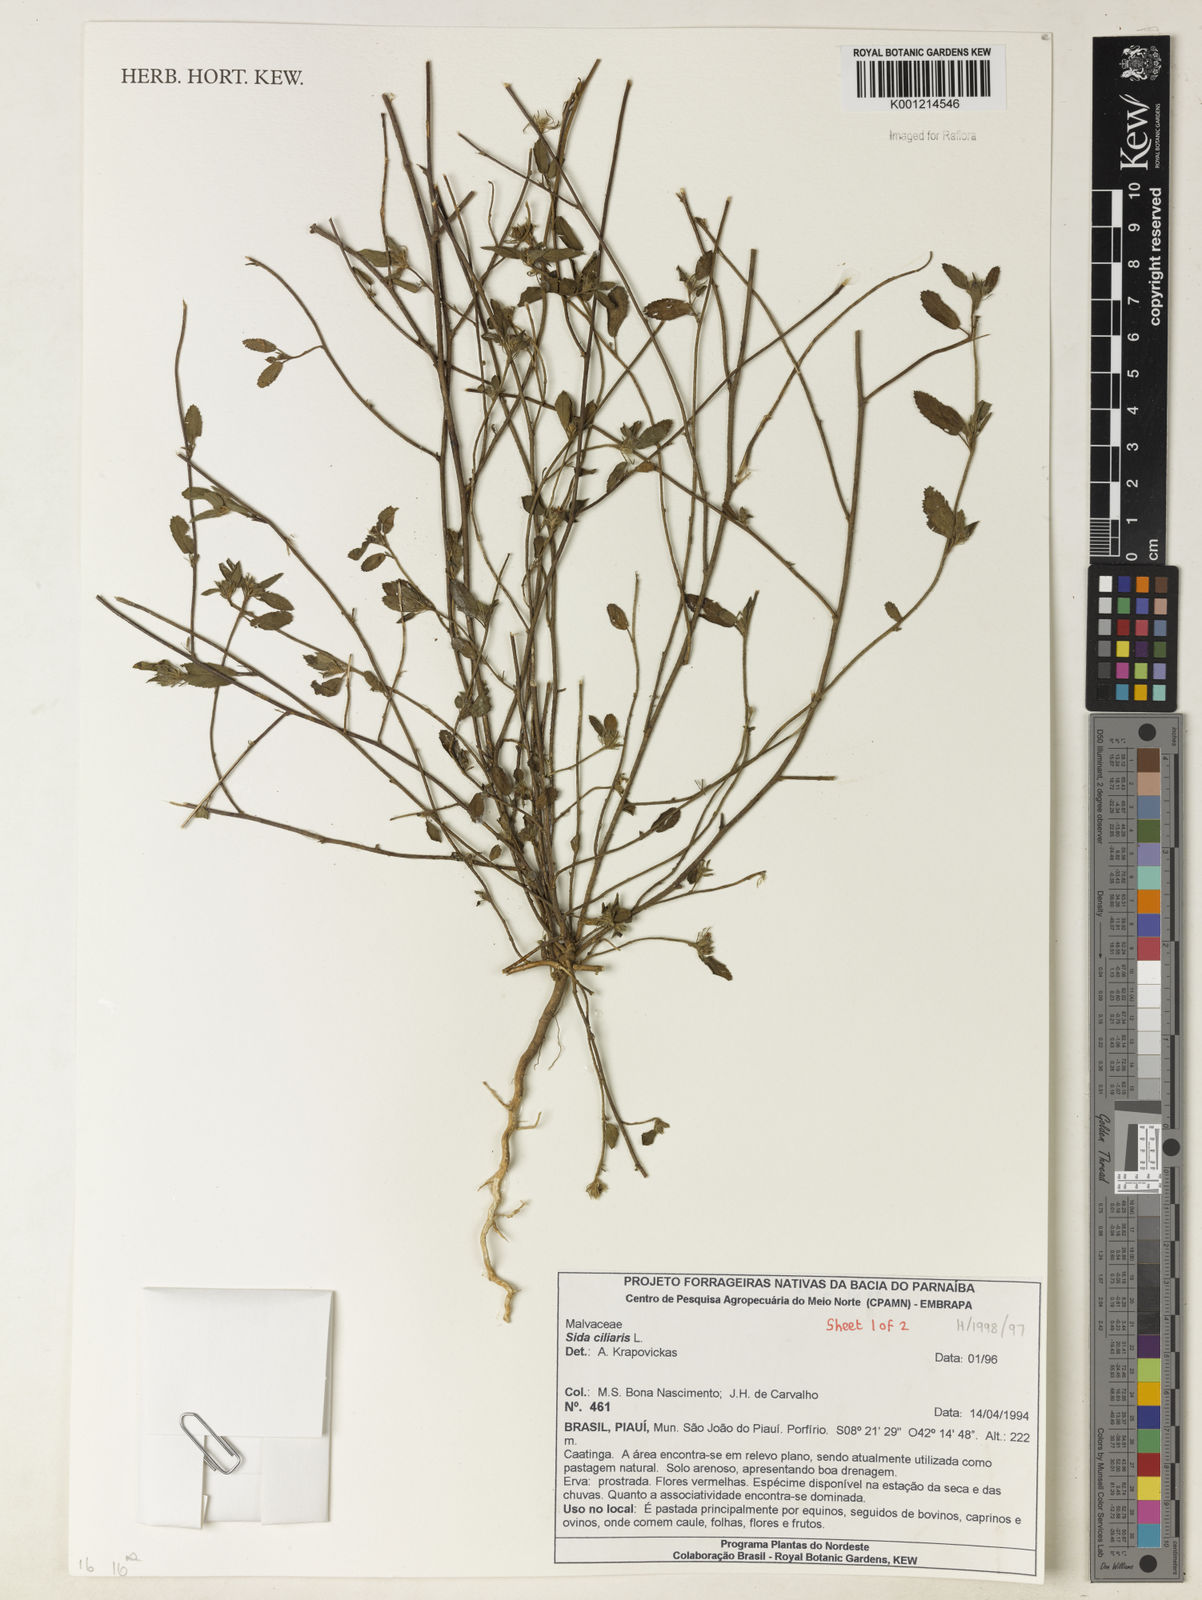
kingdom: Plantae
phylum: Tracheophyta
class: Magnoliopsida
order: Malvales
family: Malvaceae
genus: Sida
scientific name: Sida ciliaris
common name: Bracted fanpetals
